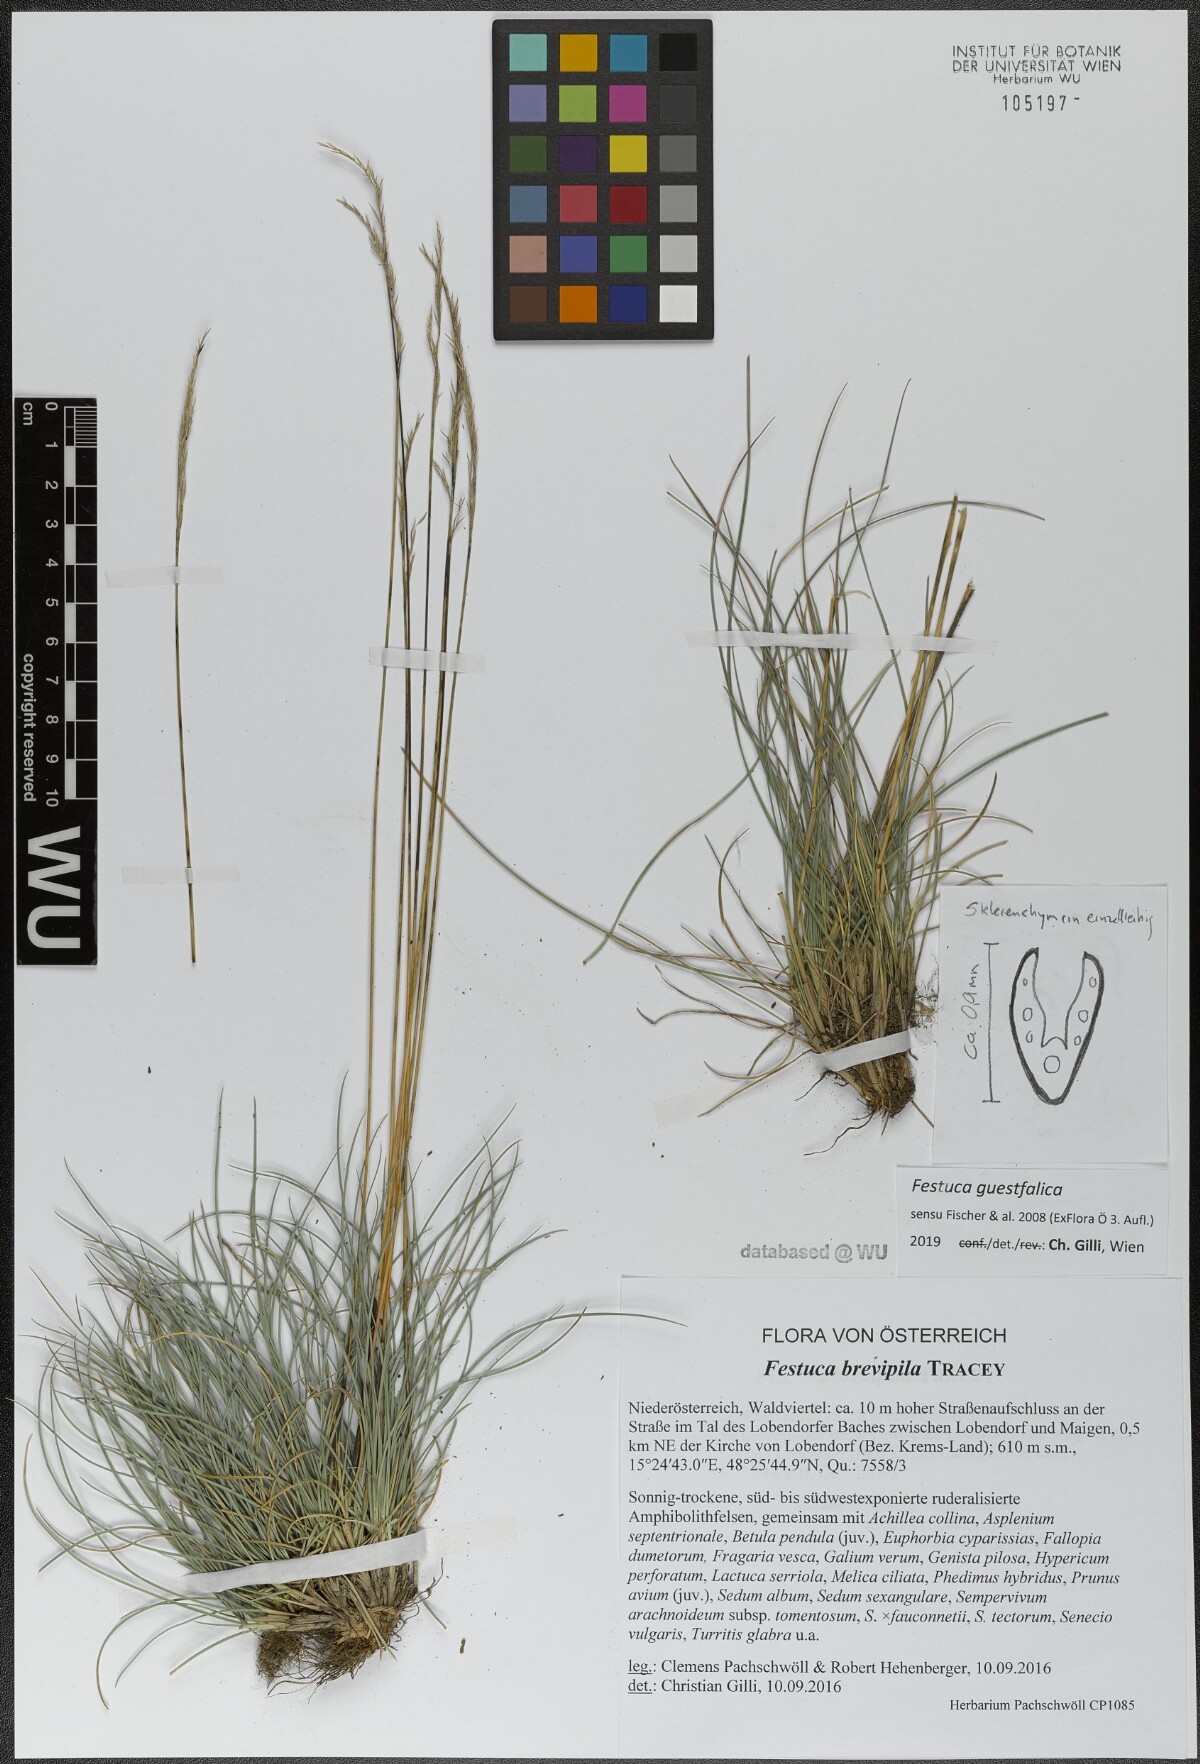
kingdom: Plantae
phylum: Tracheophyta
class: Liliopsida
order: Poales
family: Poaceae
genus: Festuca
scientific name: Festuca guestfalica
